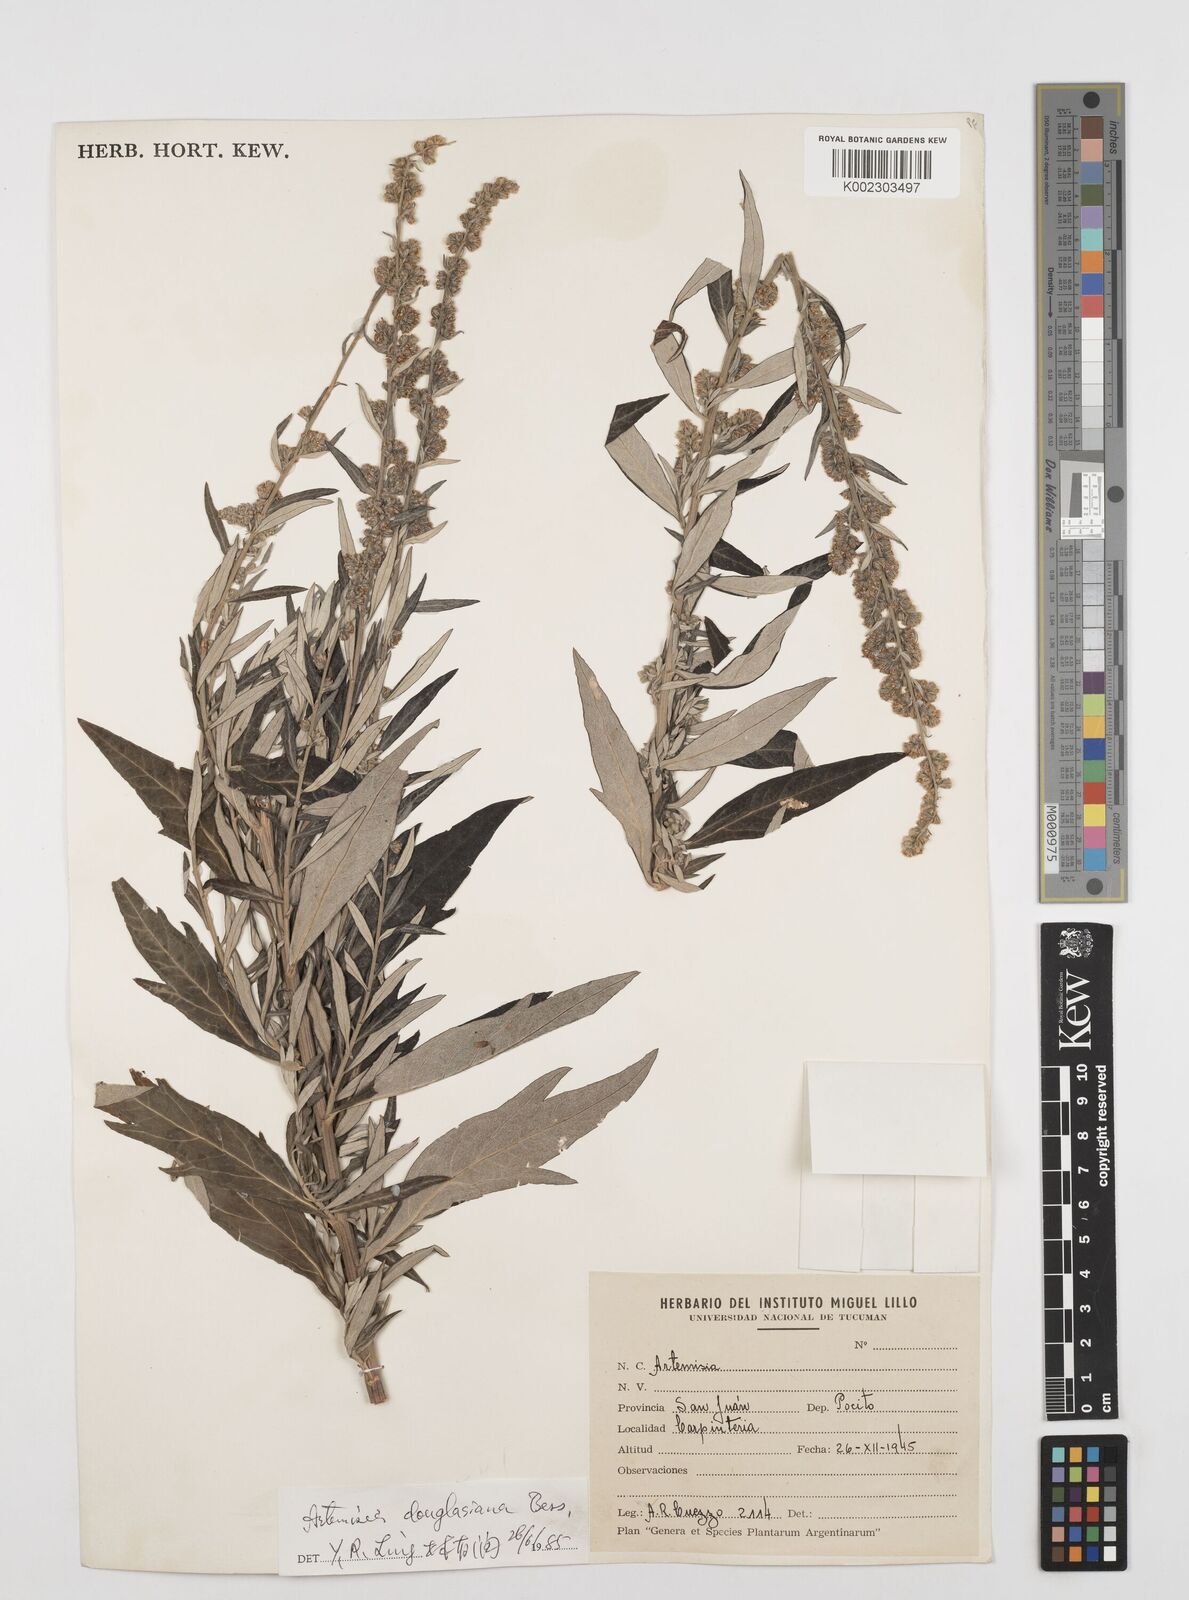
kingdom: Plantae
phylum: Tracheophyta
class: Magnoliopsida
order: Asterales
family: Asteraceae
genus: Artemisia
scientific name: Artemisia douglasiana
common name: Northwest mugwort
